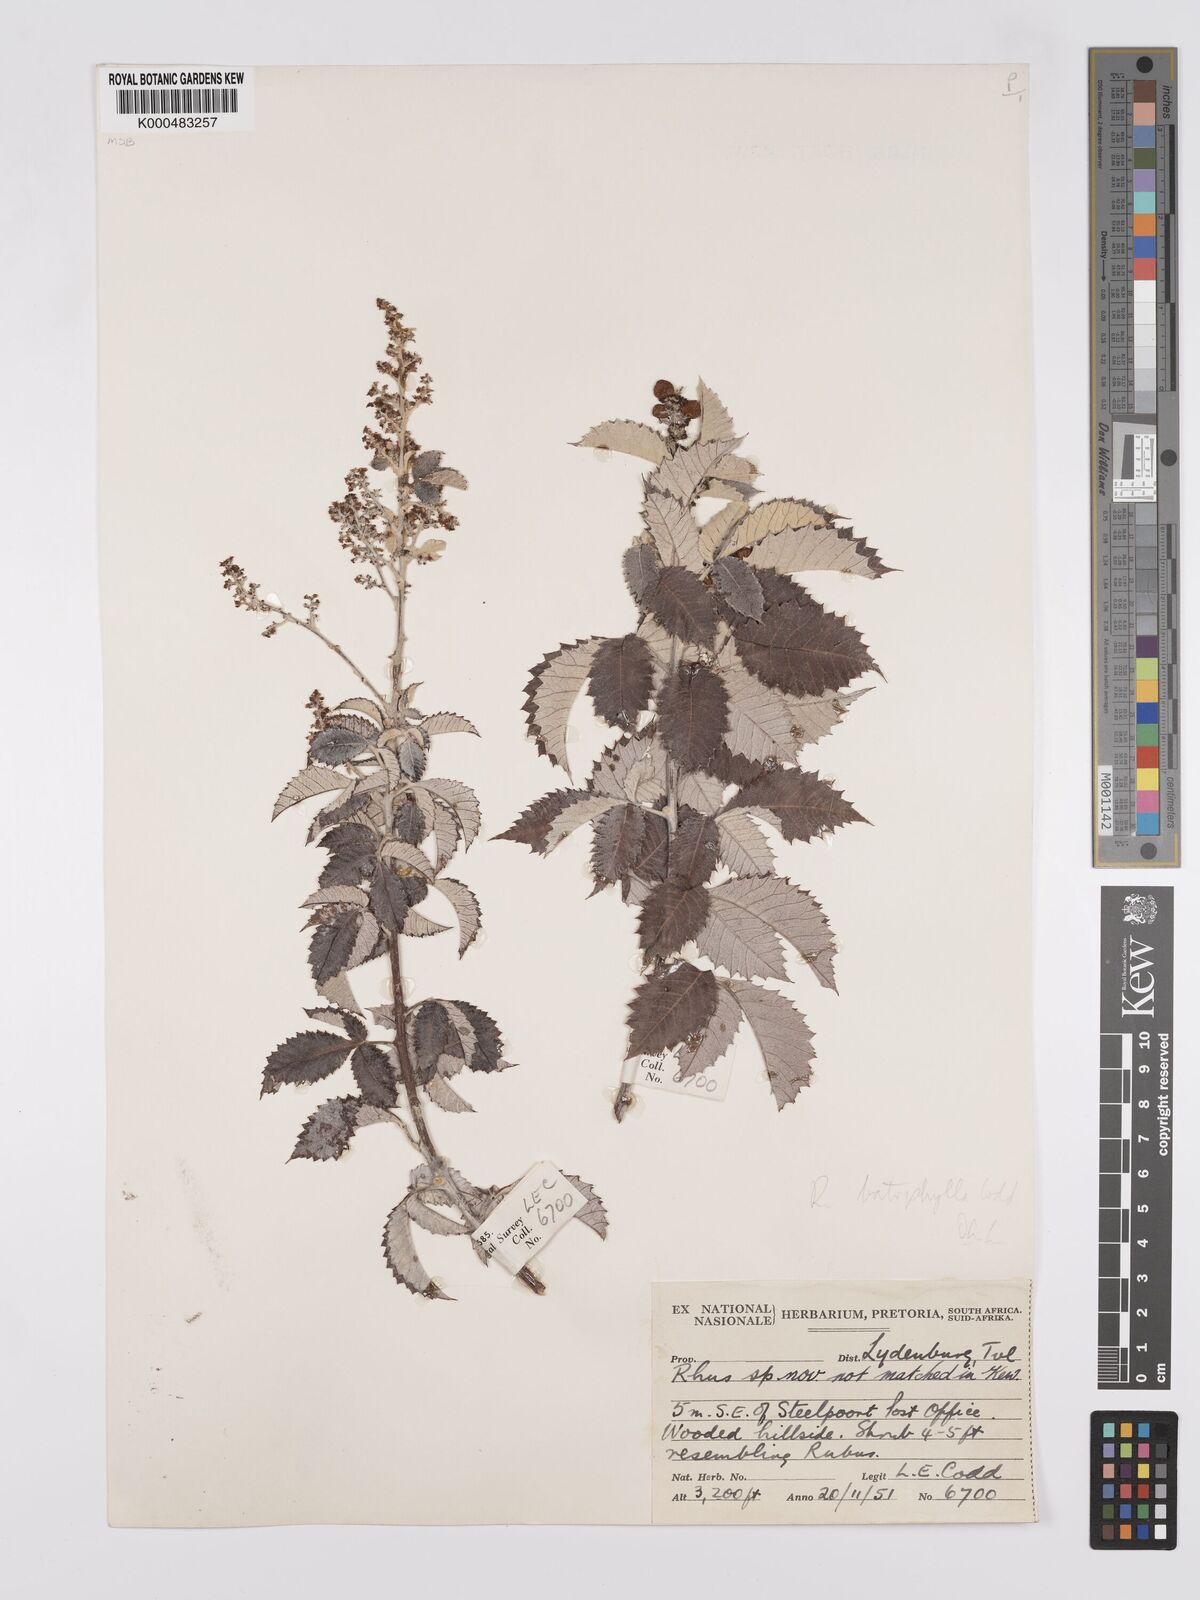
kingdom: Plantae
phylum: Tracheophyta
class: Magnoliopsida
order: Sapindales
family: Anacardiaceae
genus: Searsia
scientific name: Searsia batophylla
